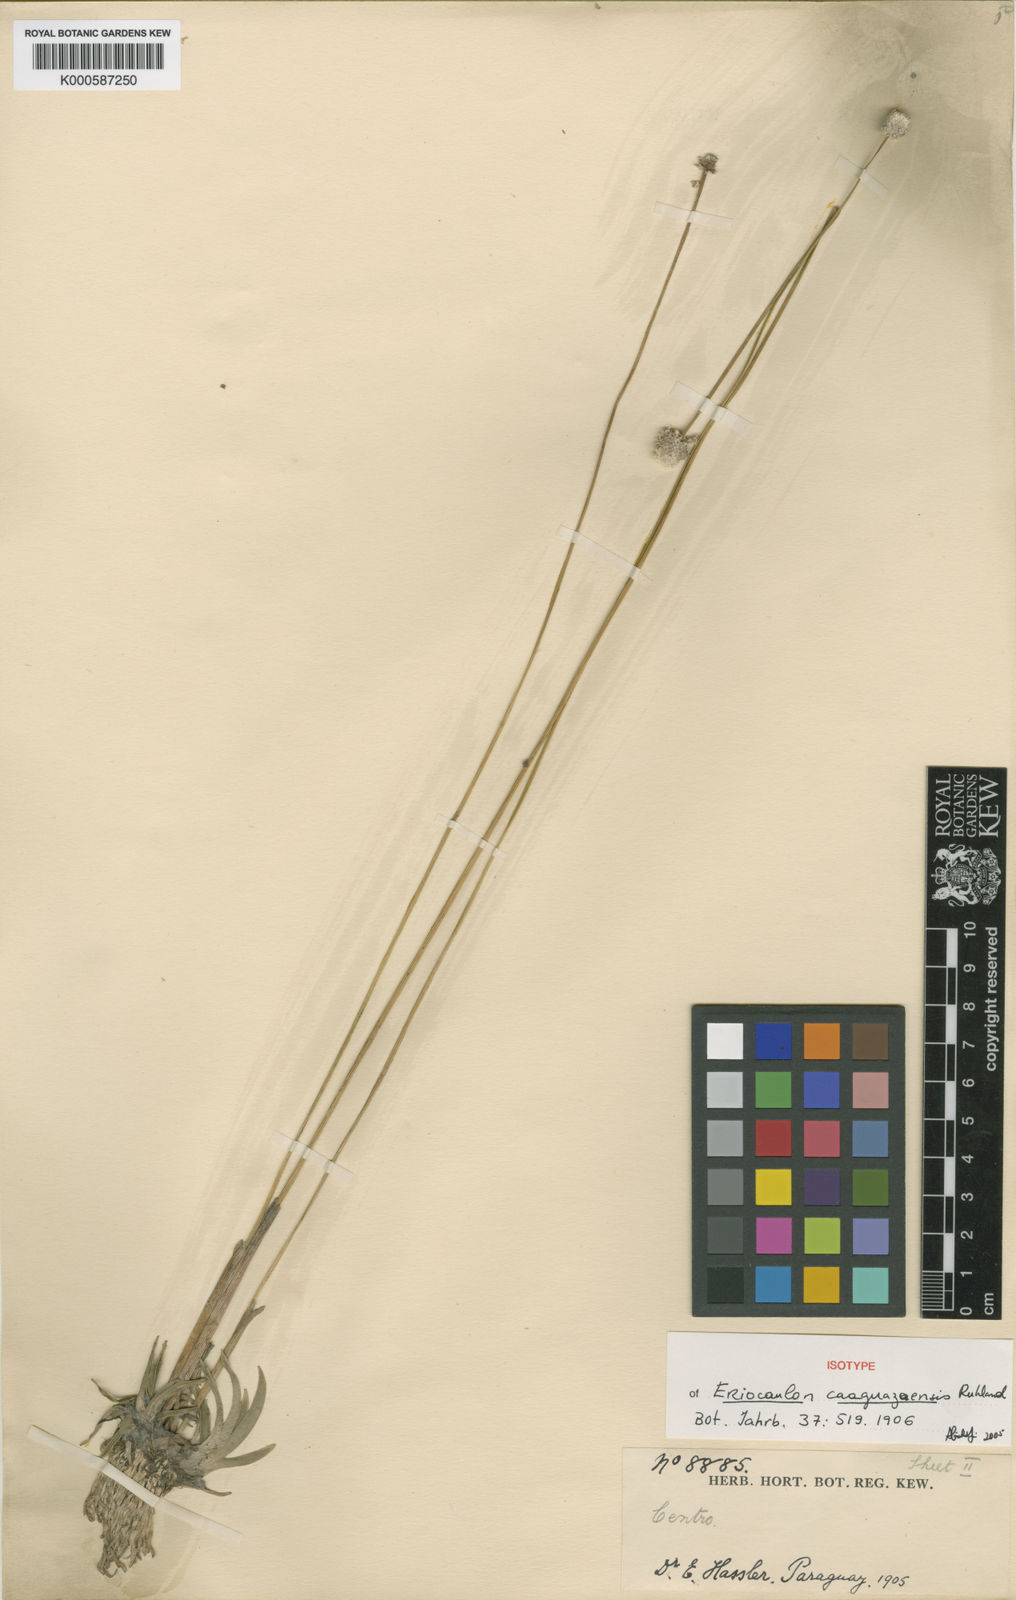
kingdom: Plantae
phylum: Tracheophyta
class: Liliopsida
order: Poales
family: Eriocaulaceae
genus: Eriocaulon
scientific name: Eriocaulon
